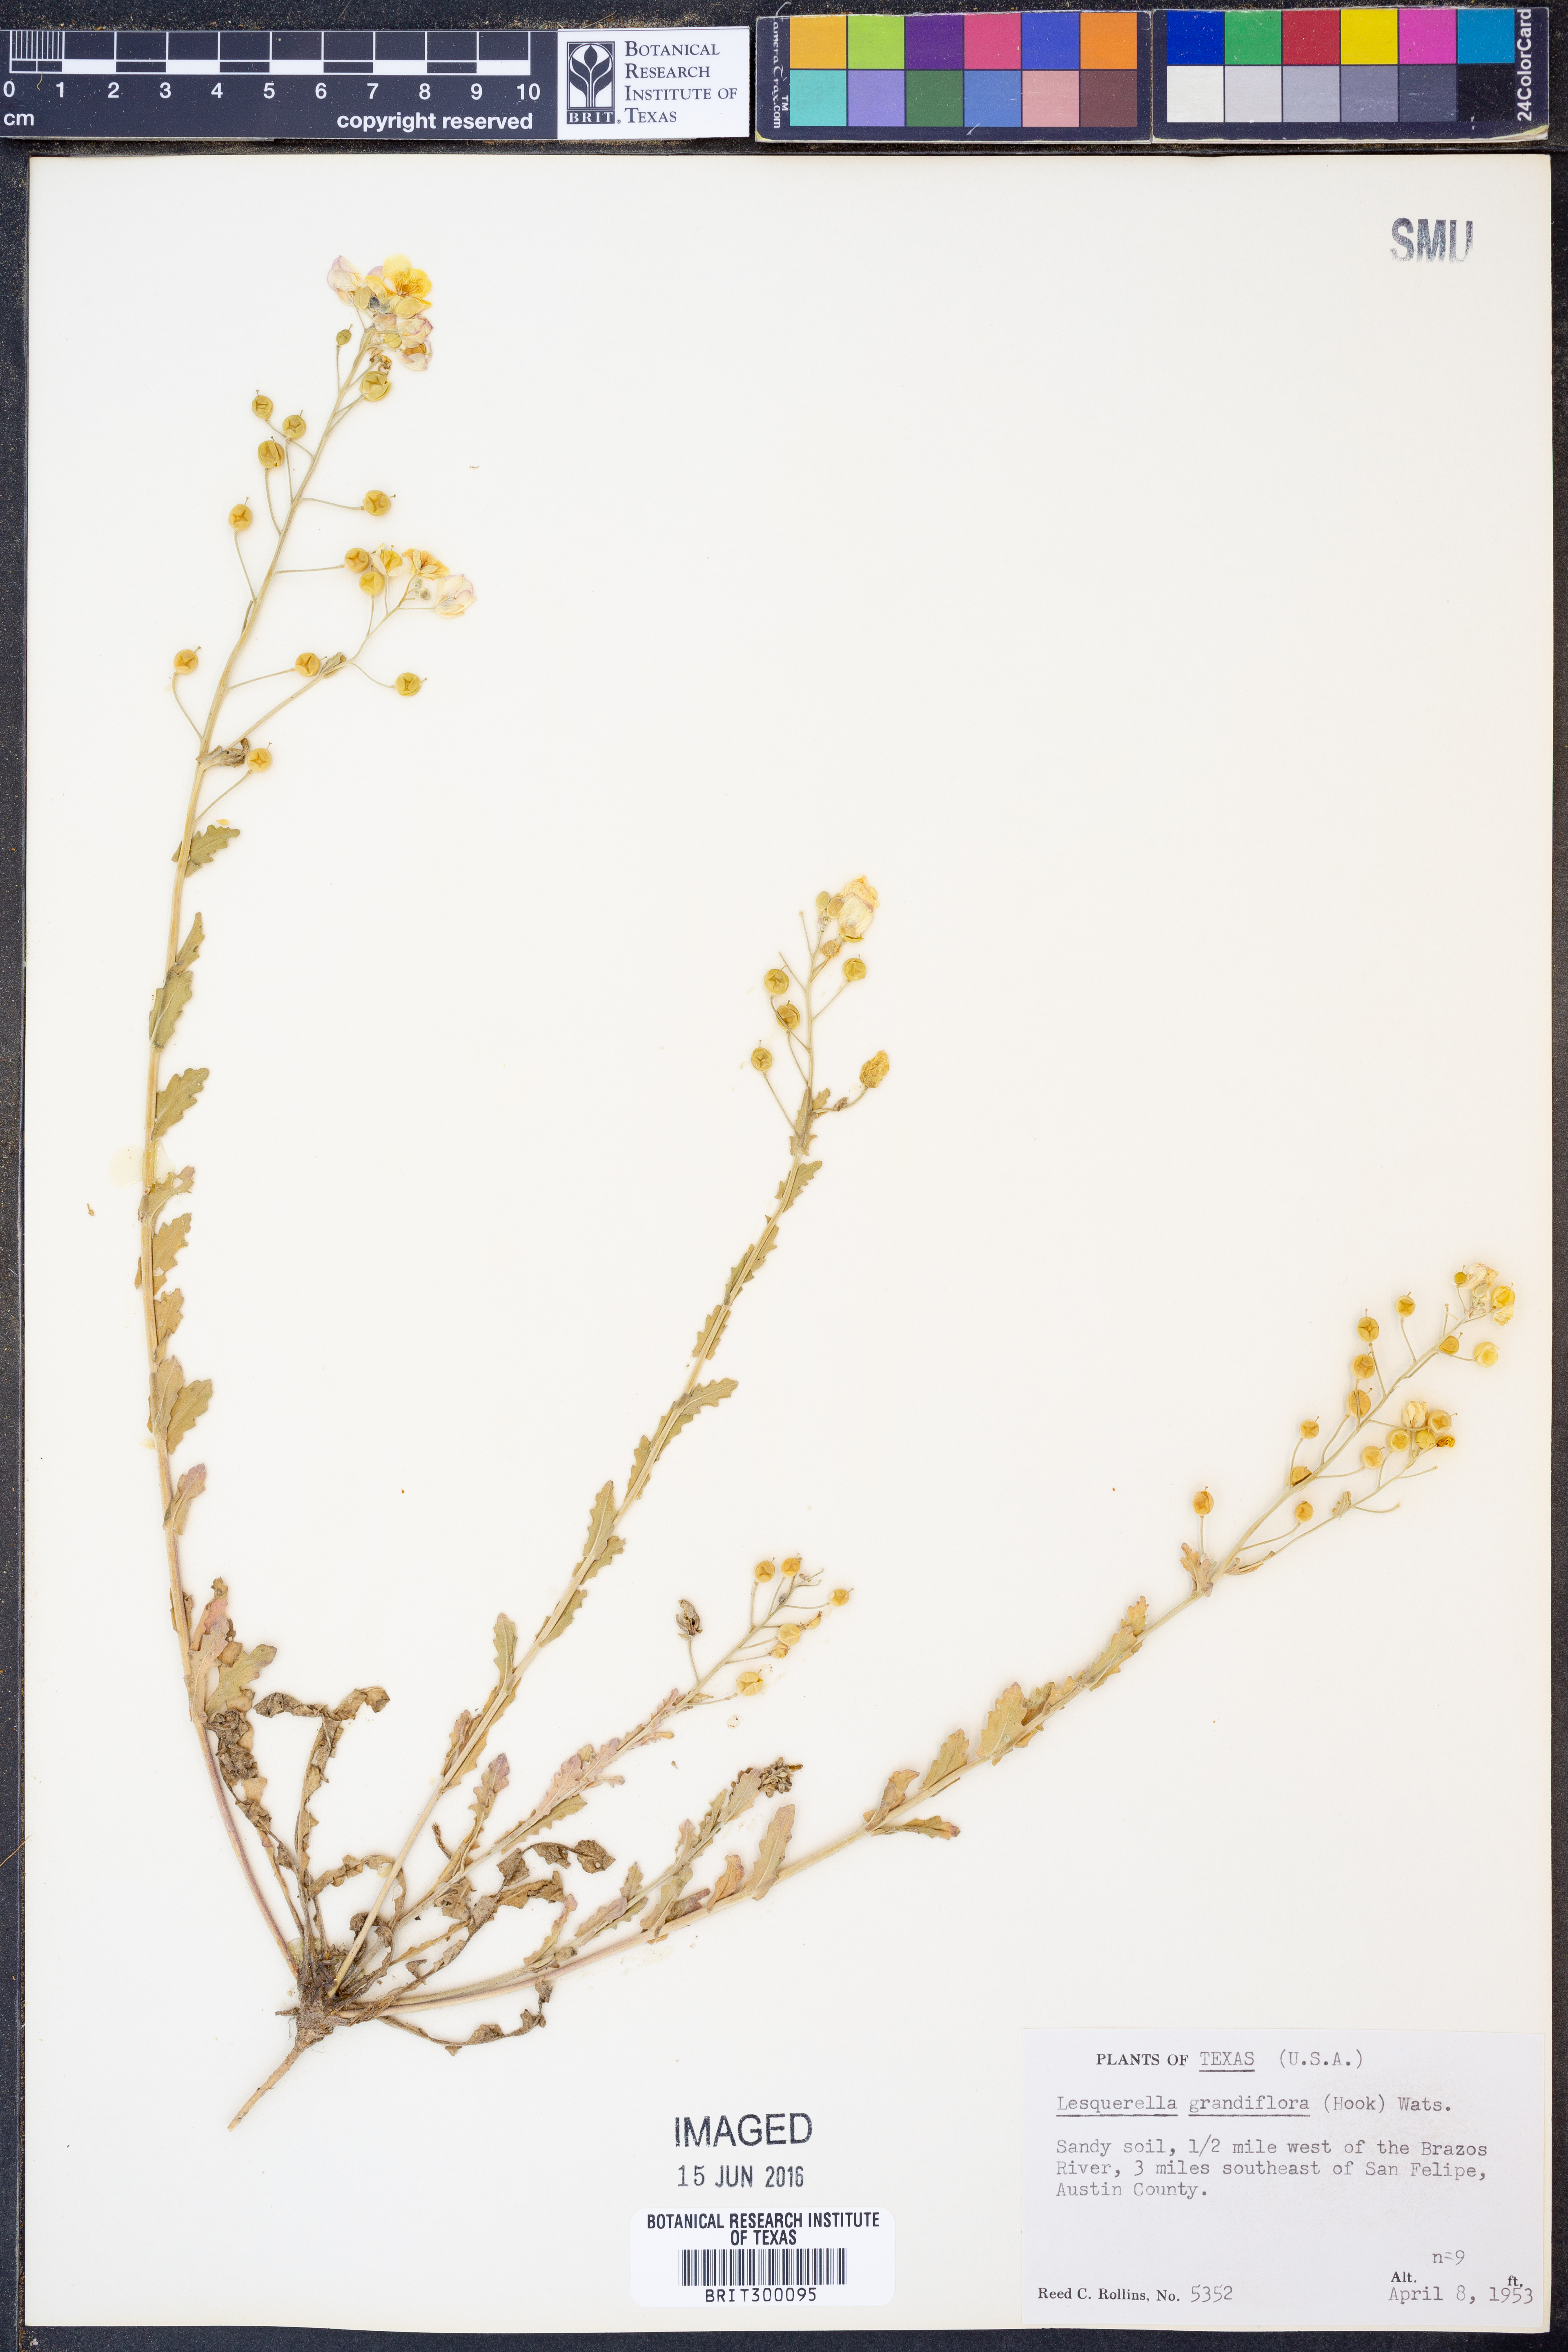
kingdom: Plantae
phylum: Tracheophyta
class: Magnoliopsida
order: Brassicales
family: Brassicaceae
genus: Paysonia
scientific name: Paysonia grandiflora
